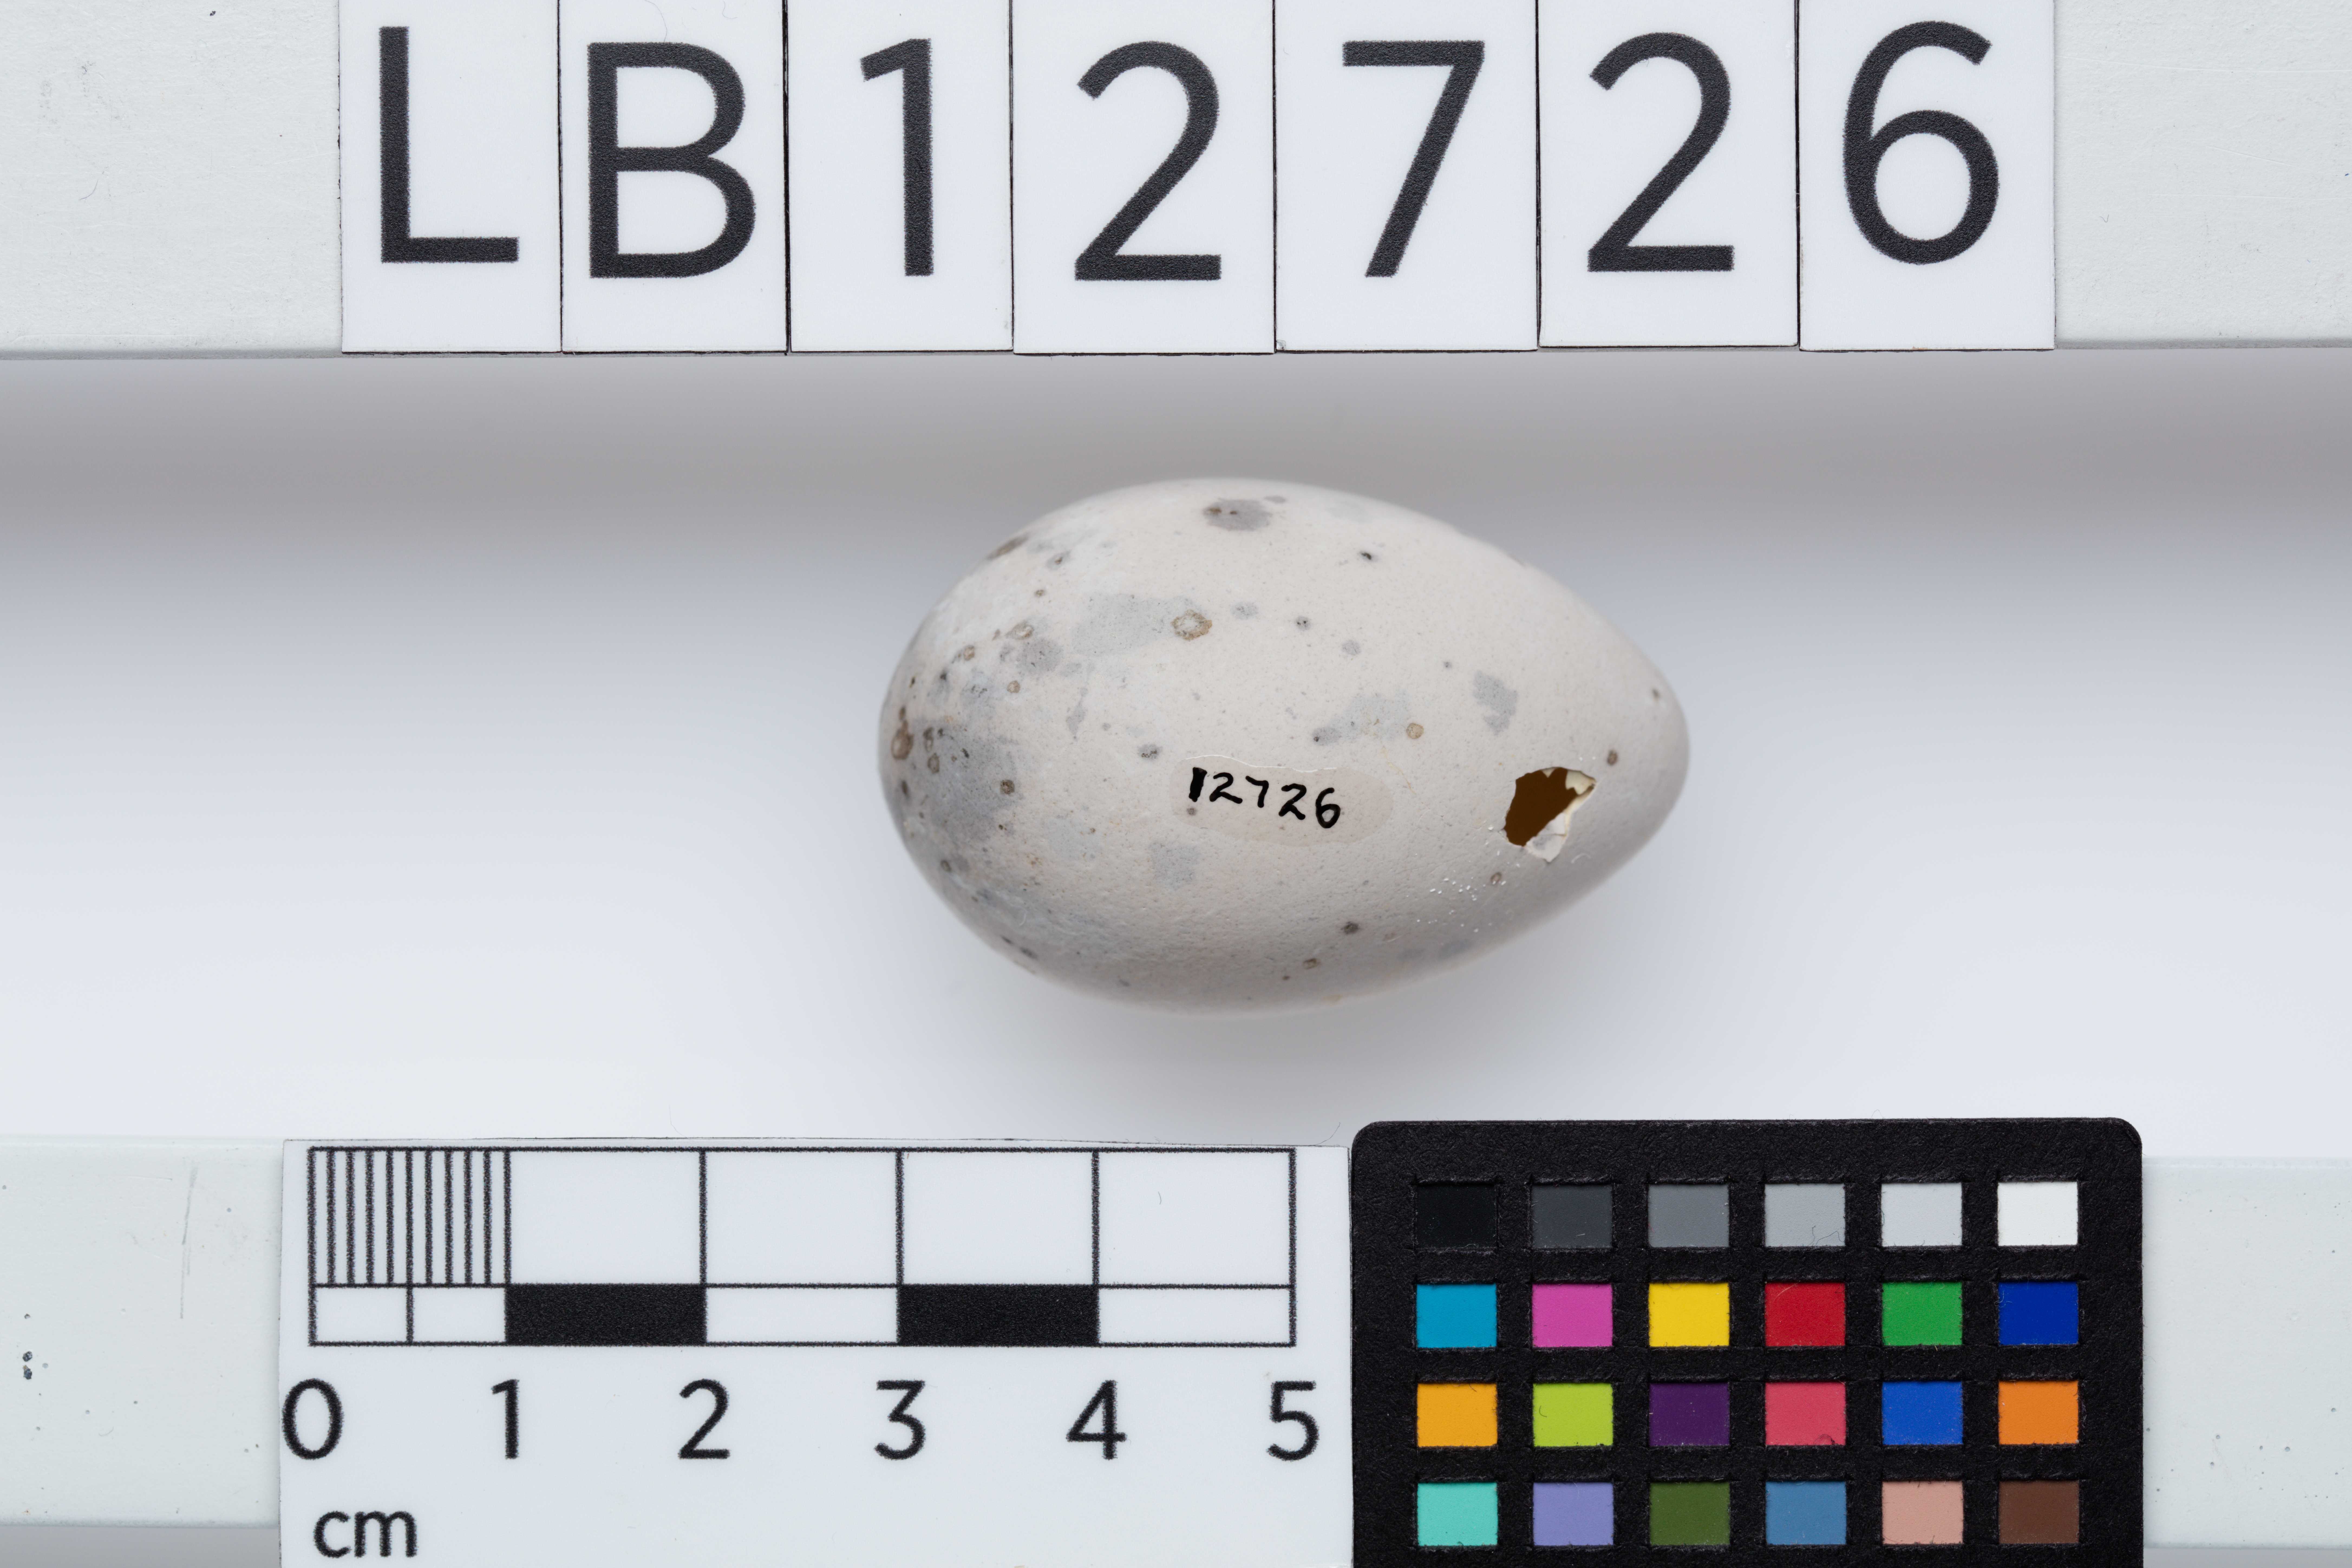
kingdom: Animalia
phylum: Chordata
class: Aves
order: Passeriformes
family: Callaeatidae
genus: Callaeas
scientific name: Callaeas cinereus
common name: South island kokako
